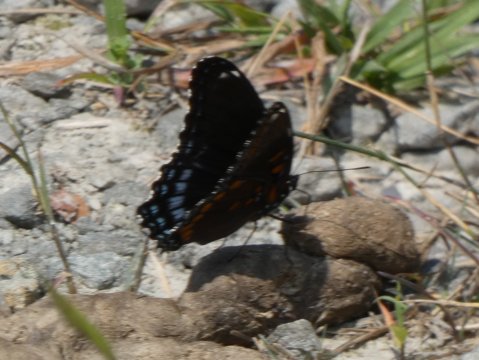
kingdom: Animalia
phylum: Arthropoda
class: Insecta
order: Lepidoptera
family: Nymphalidae
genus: Limenitis
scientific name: Limenitis arthemis
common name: Red-spotted Admiral
